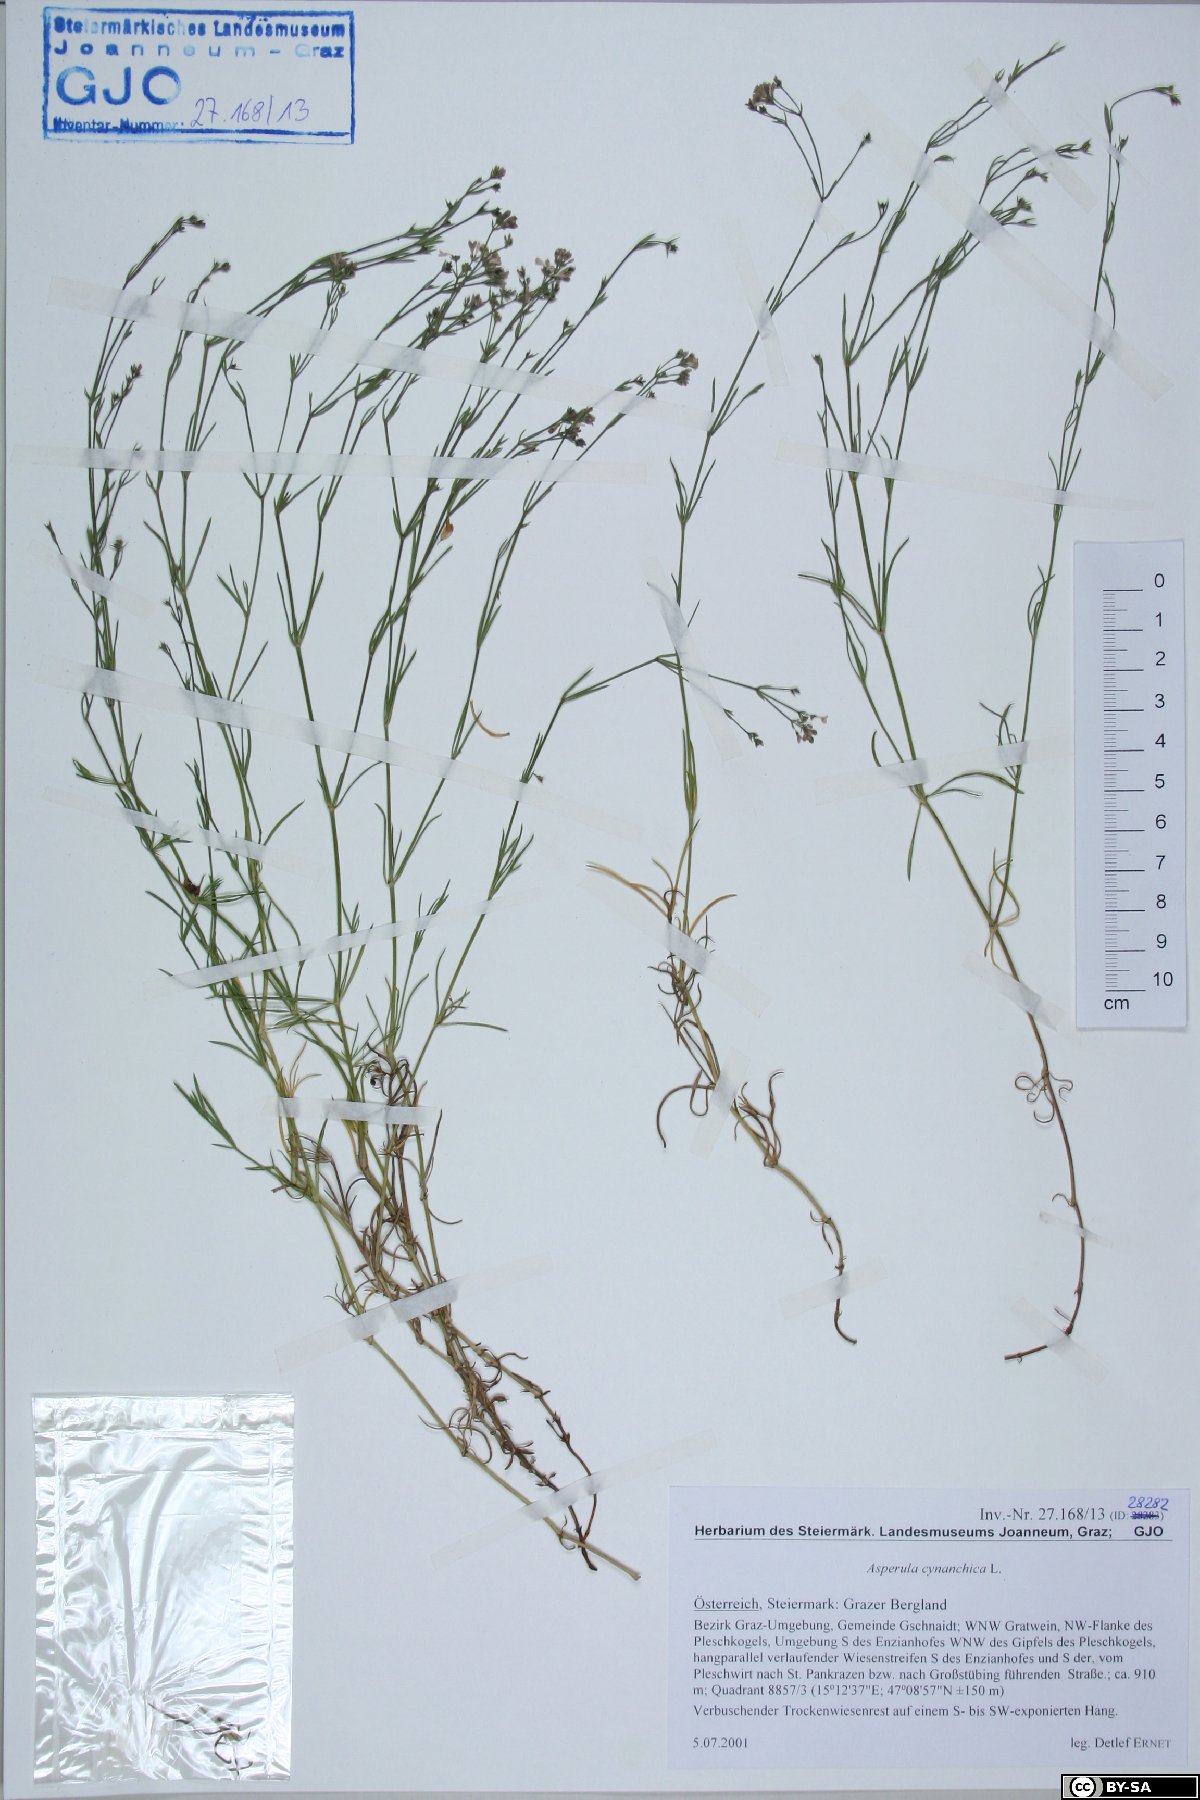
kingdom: Plantae
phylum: Tracheophyta
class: Magnoliopsida
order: Gentianales
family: Rubiaceae
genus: Cynanchica
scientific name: Cynanchica pyrenaica
